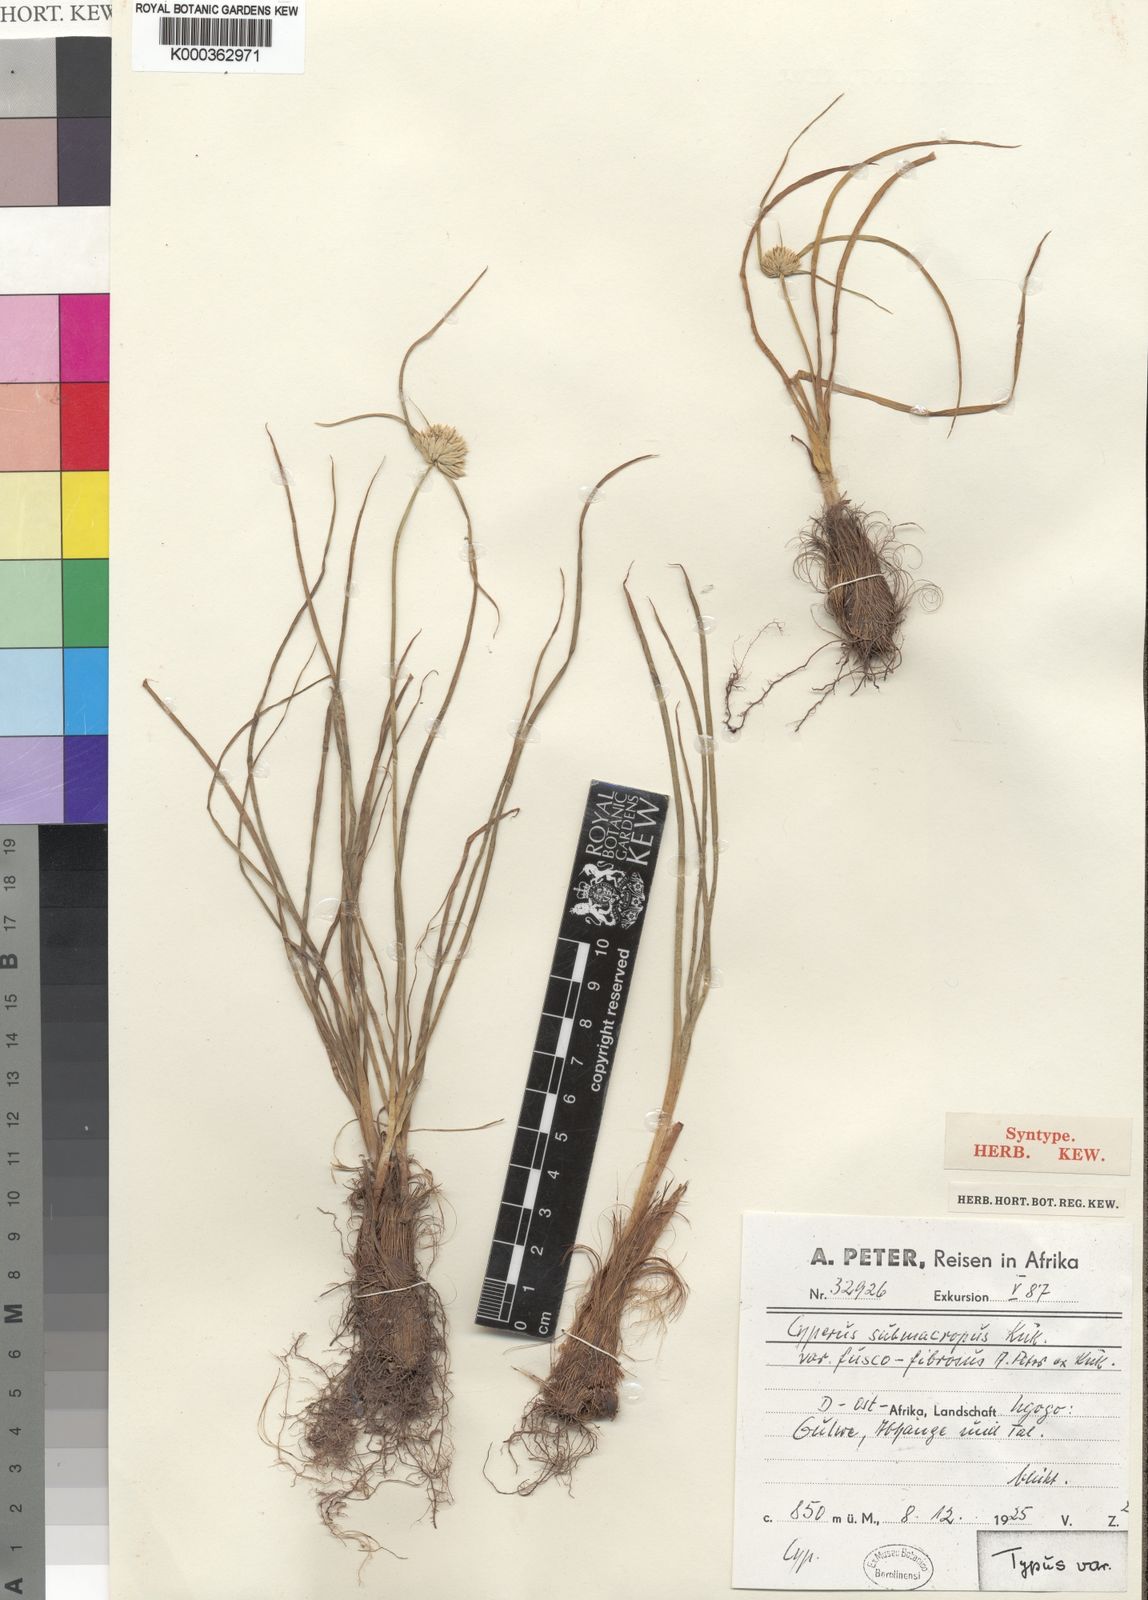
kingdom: Plantae
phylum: Tracheophyta
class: Liliopsida
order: Poales
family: Cyperaceae
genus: Cyperus
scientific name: Cyperus
